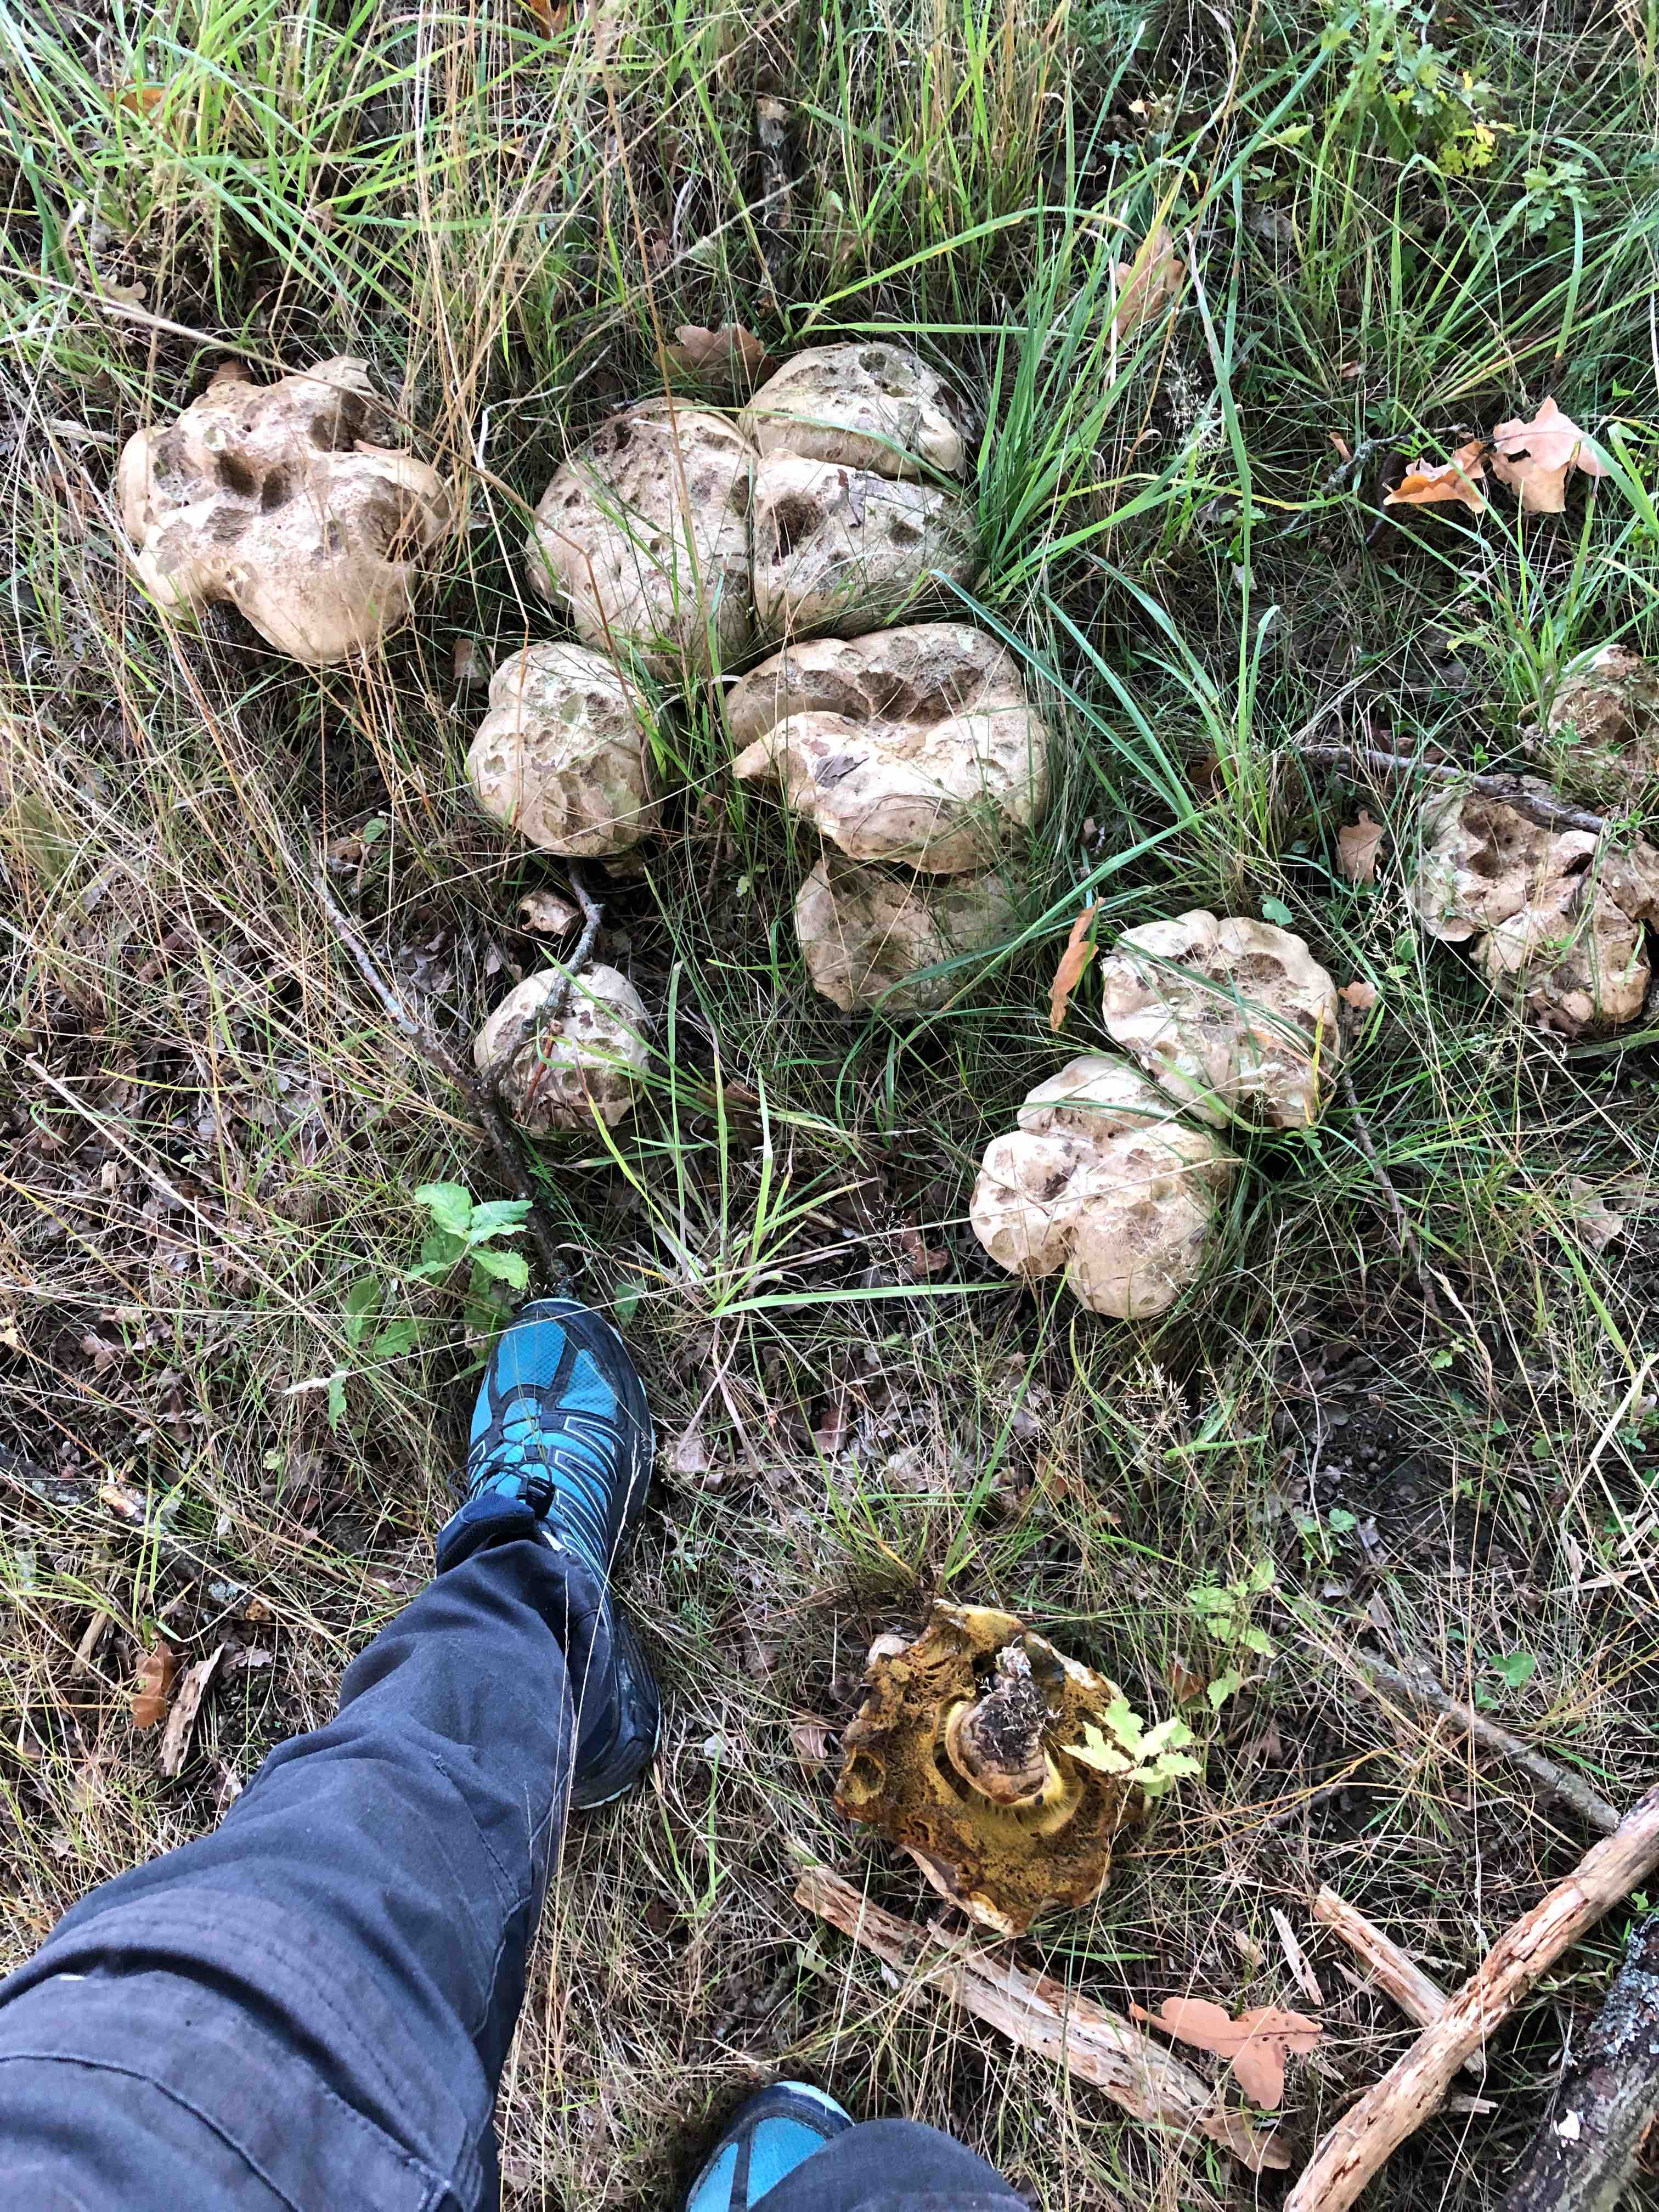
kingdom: Fungi
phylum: Basidiomycota
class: Agaricomycetes
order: Boletales
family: Boletaceae
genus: Caloboletus
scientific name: Caloboletus radicans
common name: rod-rørhat
